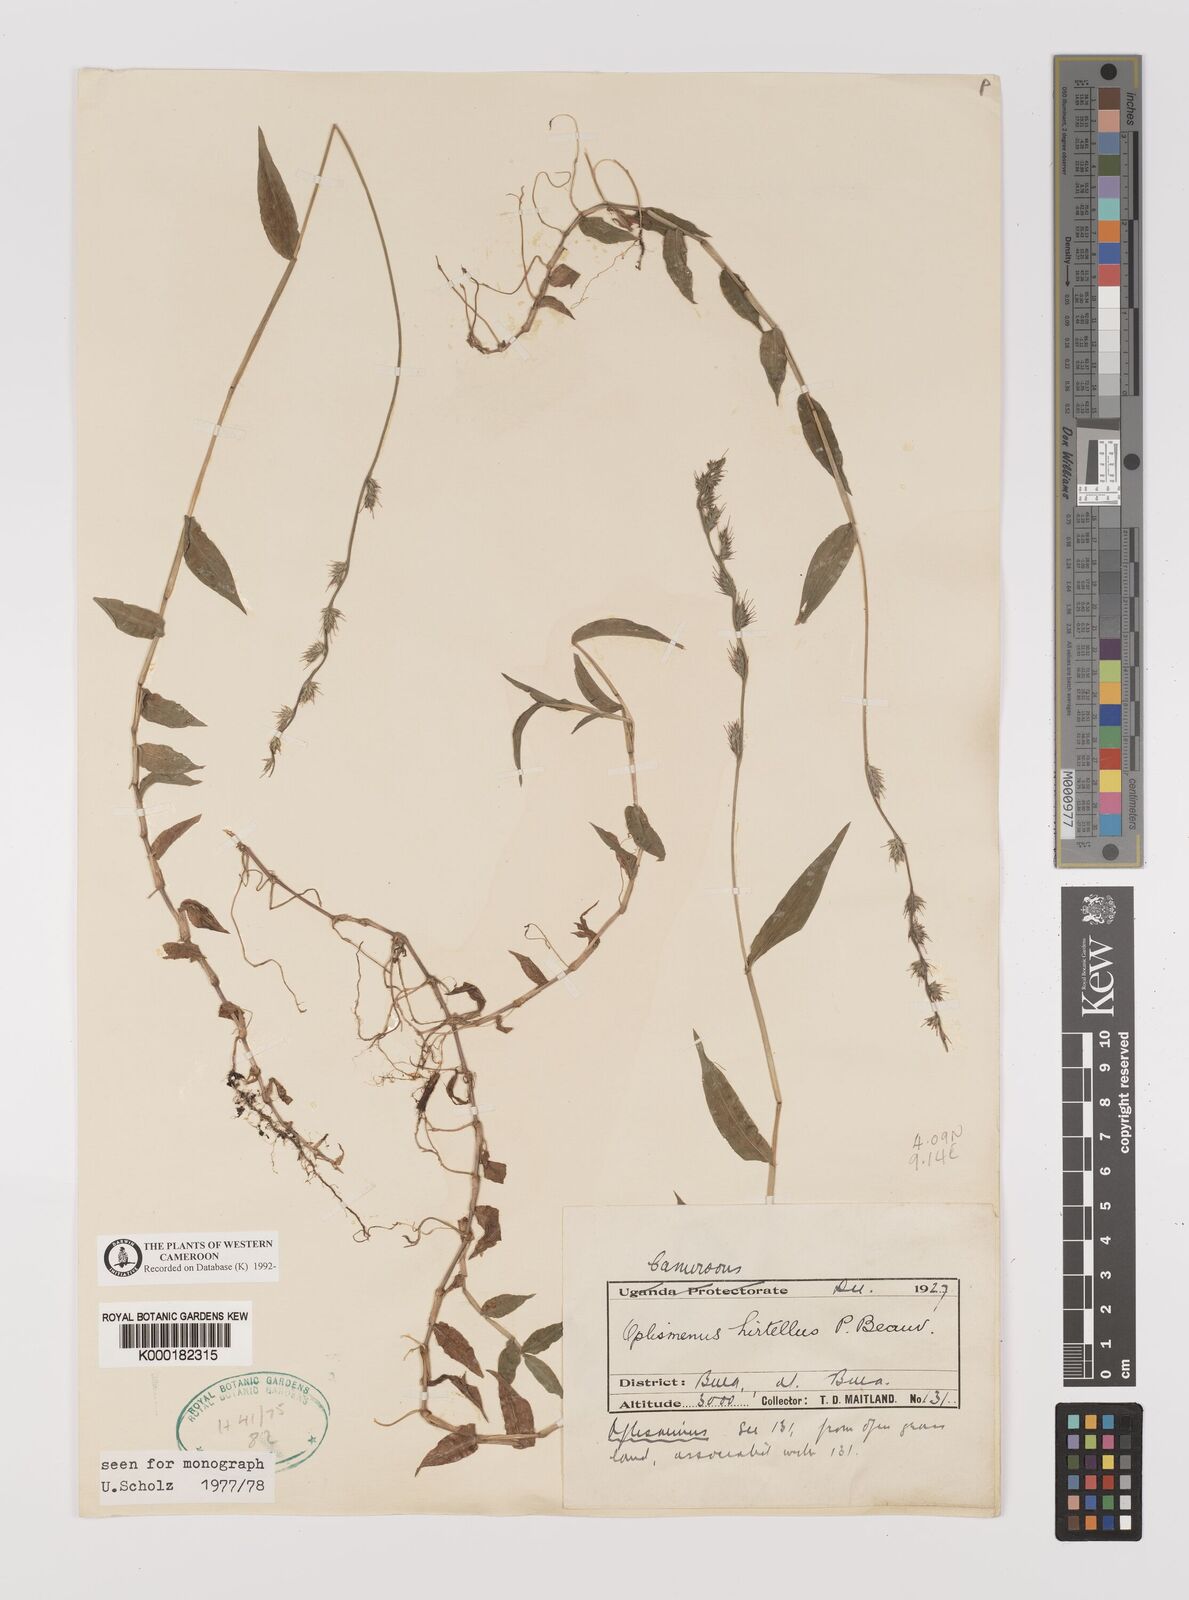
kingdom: Plantae
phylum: Tracheophyta
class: Liliopsida
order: Poales
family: Poaceae
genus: Oplismenus
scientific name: Oplismenus hirtellus
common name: Basketgrass
